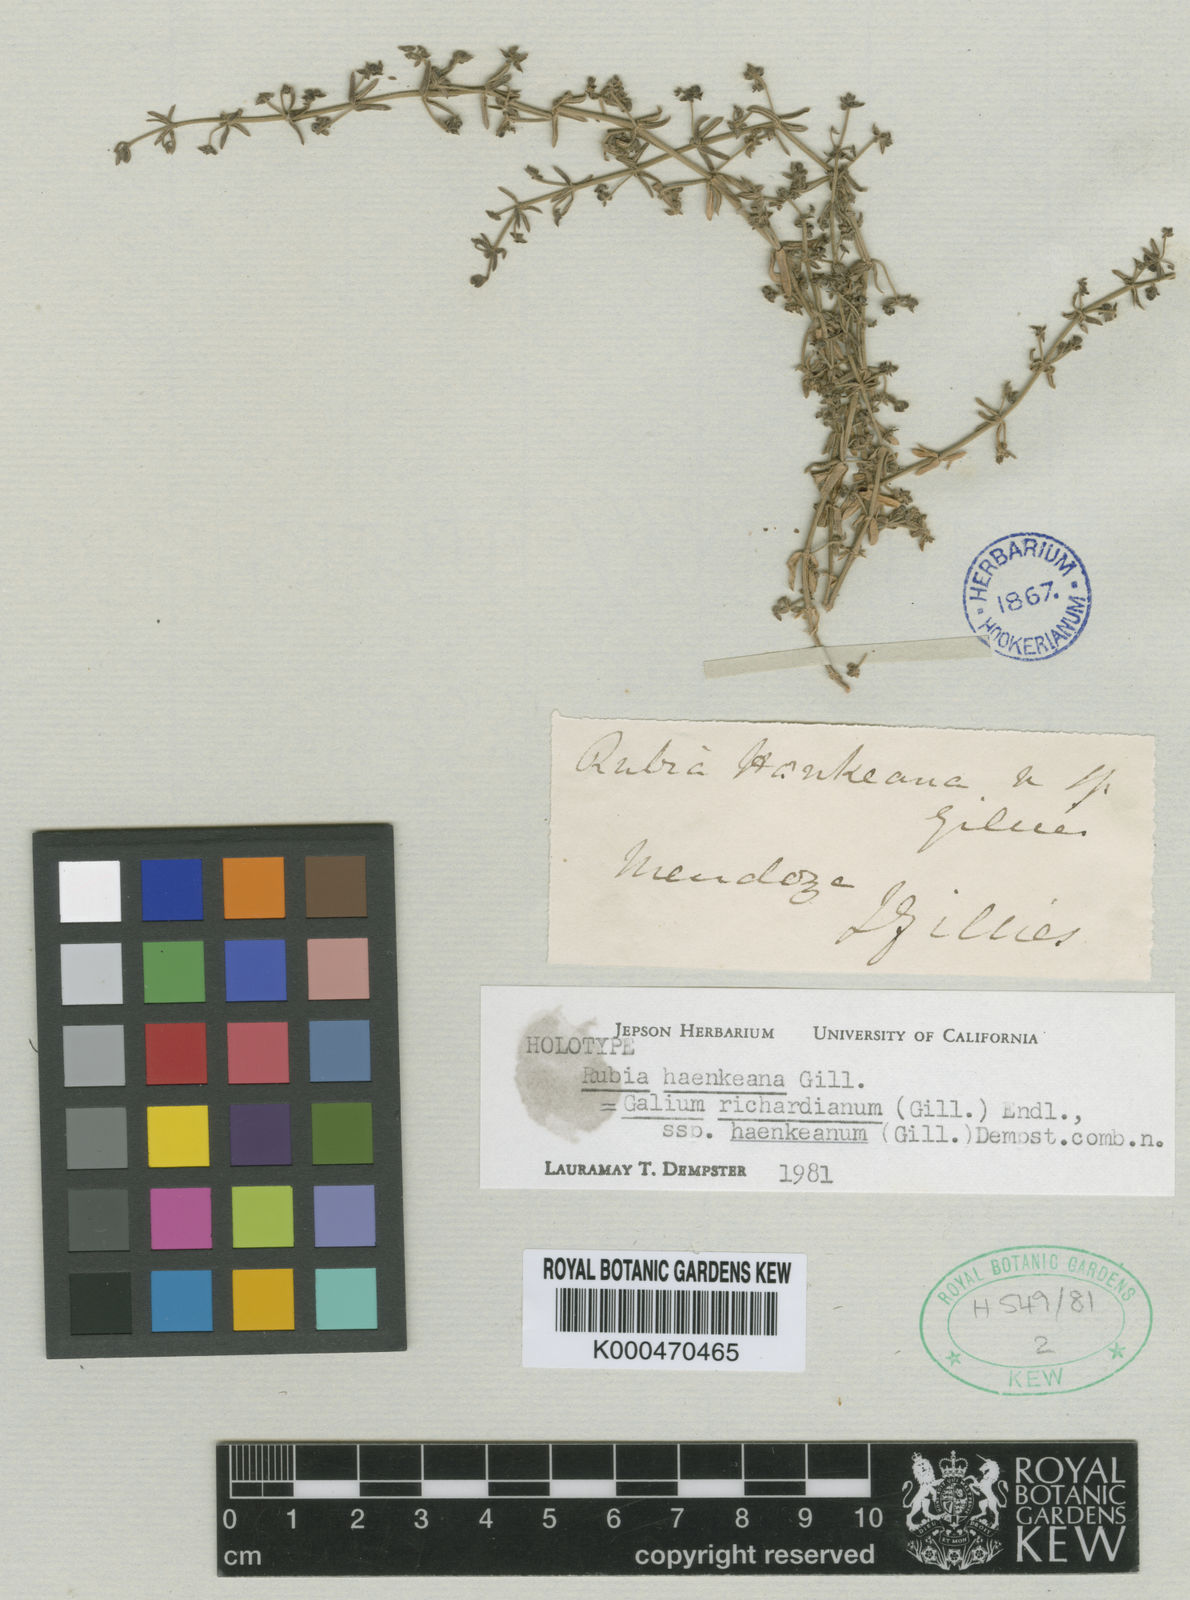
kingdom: Plantae
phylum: Tracheophyta
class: Magnoliopsida
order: Gentianales
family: Rubiaceae
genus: Galium
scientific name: Galium richardianum
